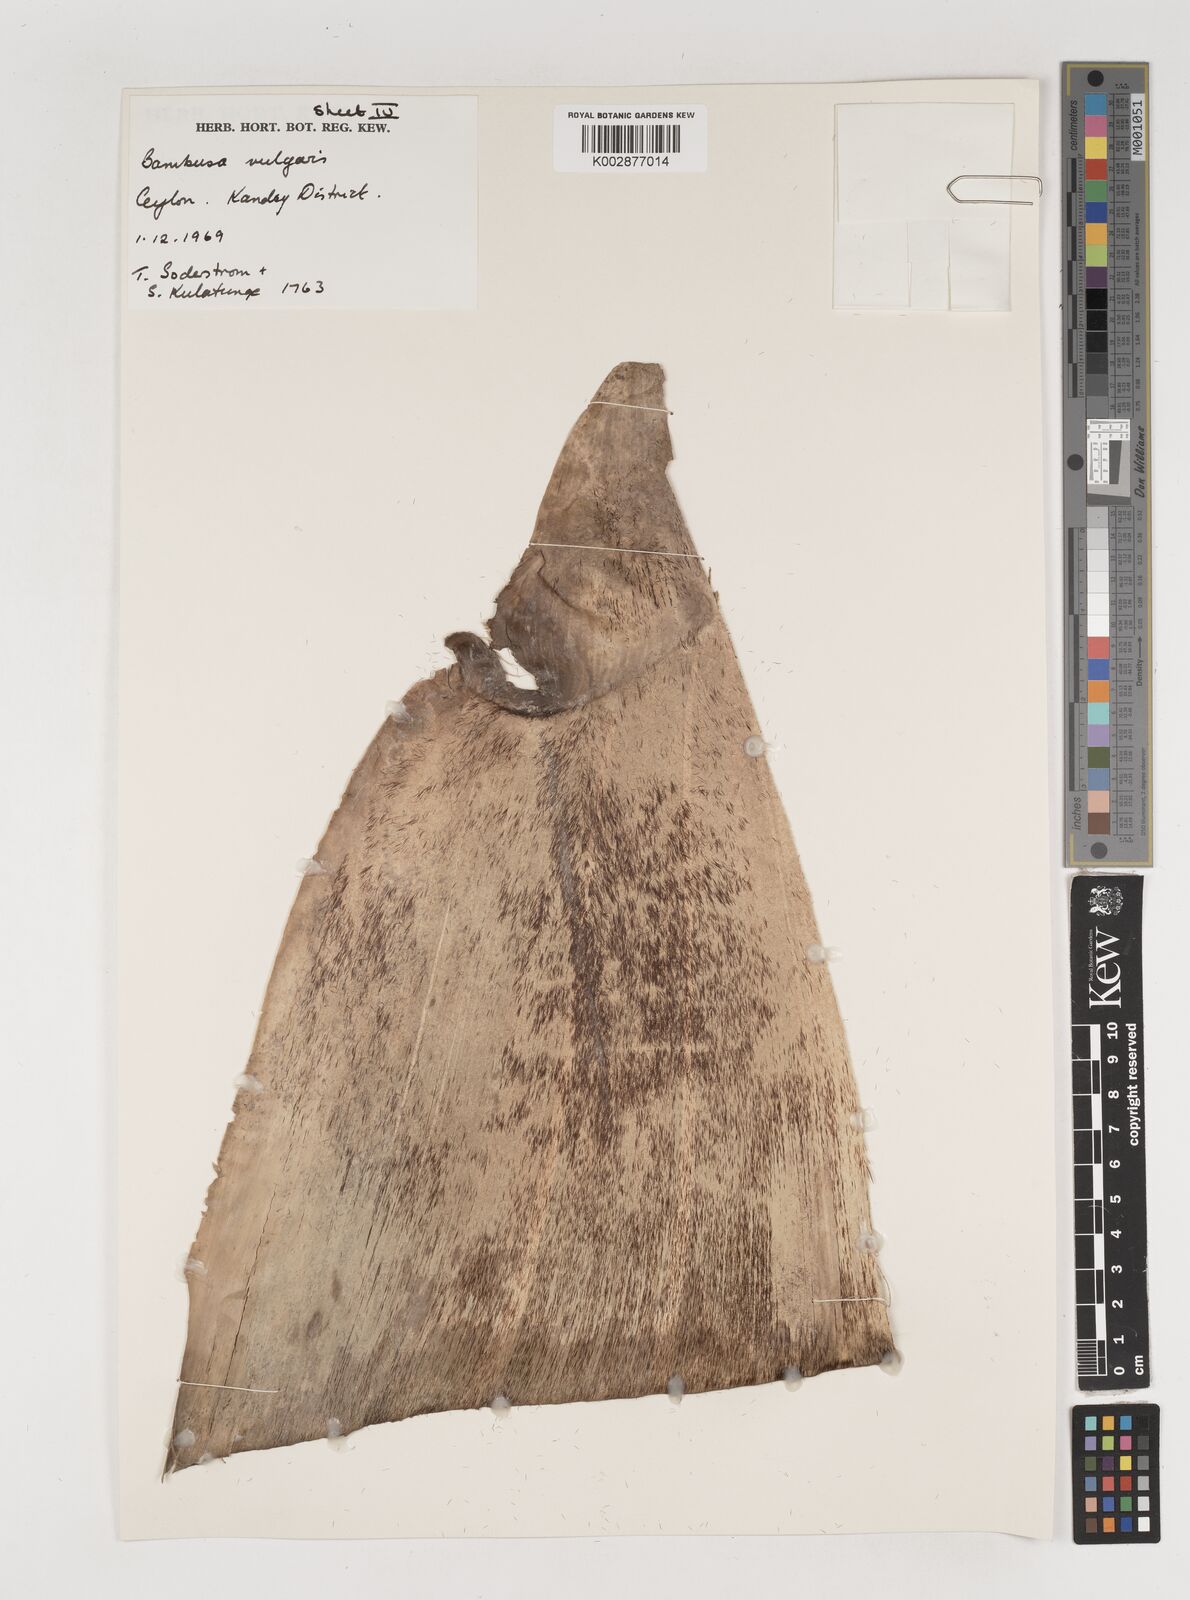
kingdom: Plantae
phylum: Tracheophyta
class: Liliopsida
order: Poales
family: Poaceae
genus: Bambusa
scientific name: Bambusa vulgaris
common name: Common bamboo
